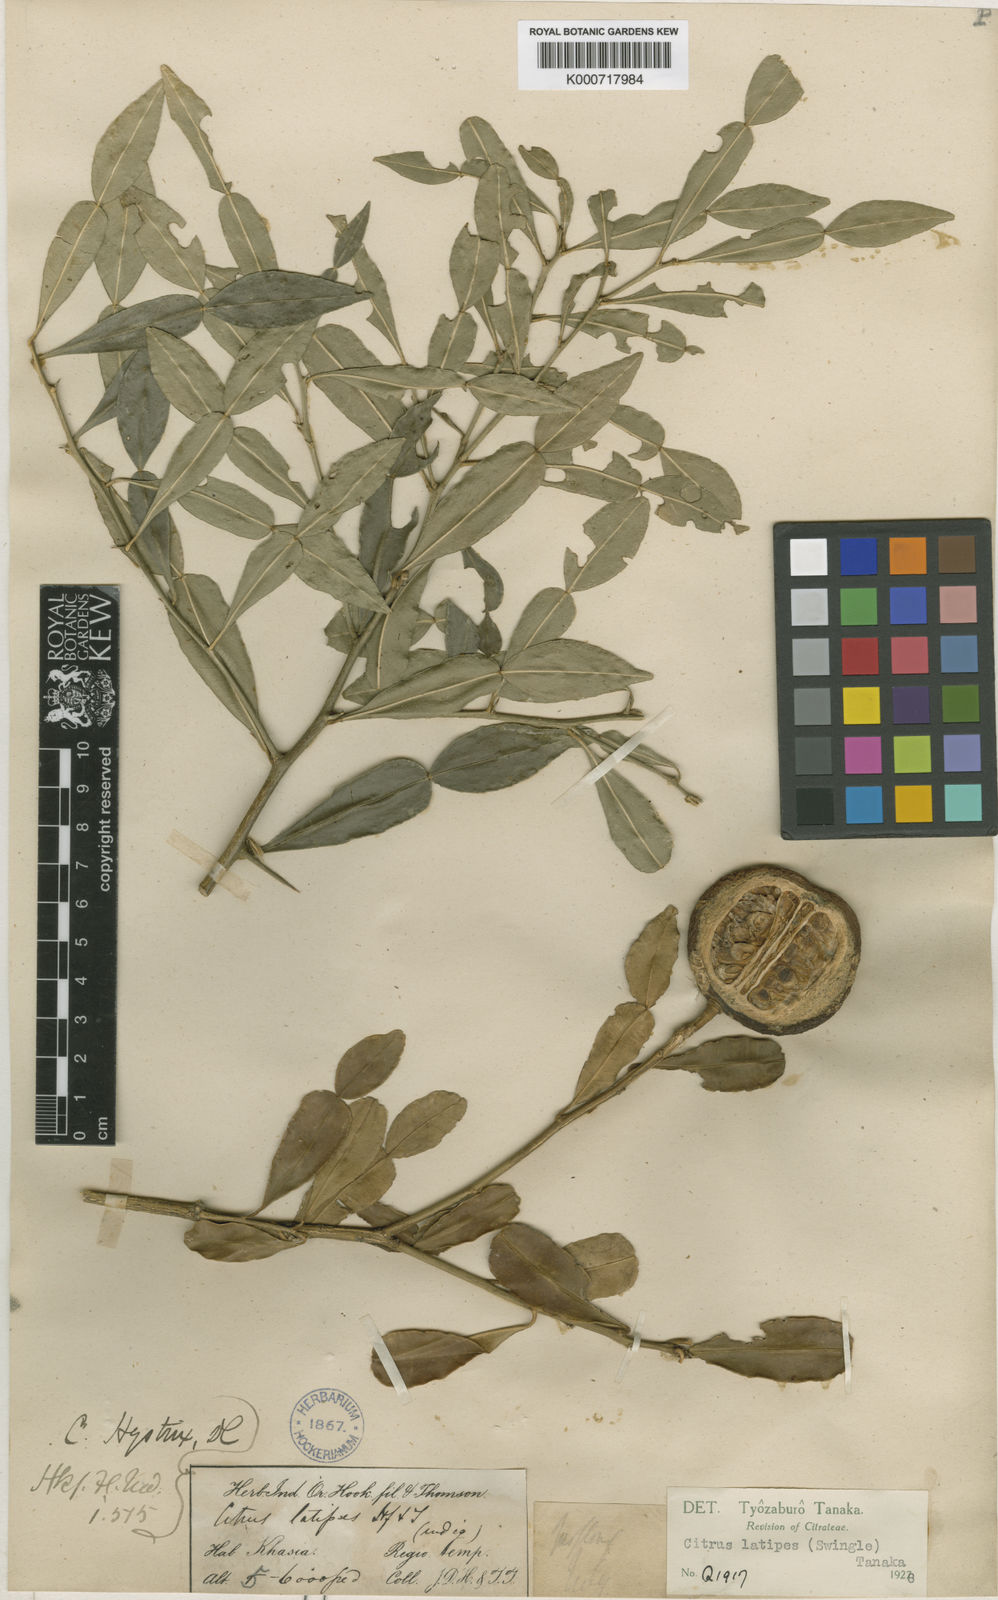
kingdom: Plantae
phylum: Tracheophyta
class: Magnoliopsida
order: Sapindales
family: Rutaceae
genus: Citrus
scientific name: Citrus latipes
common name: Khasi-papeda
